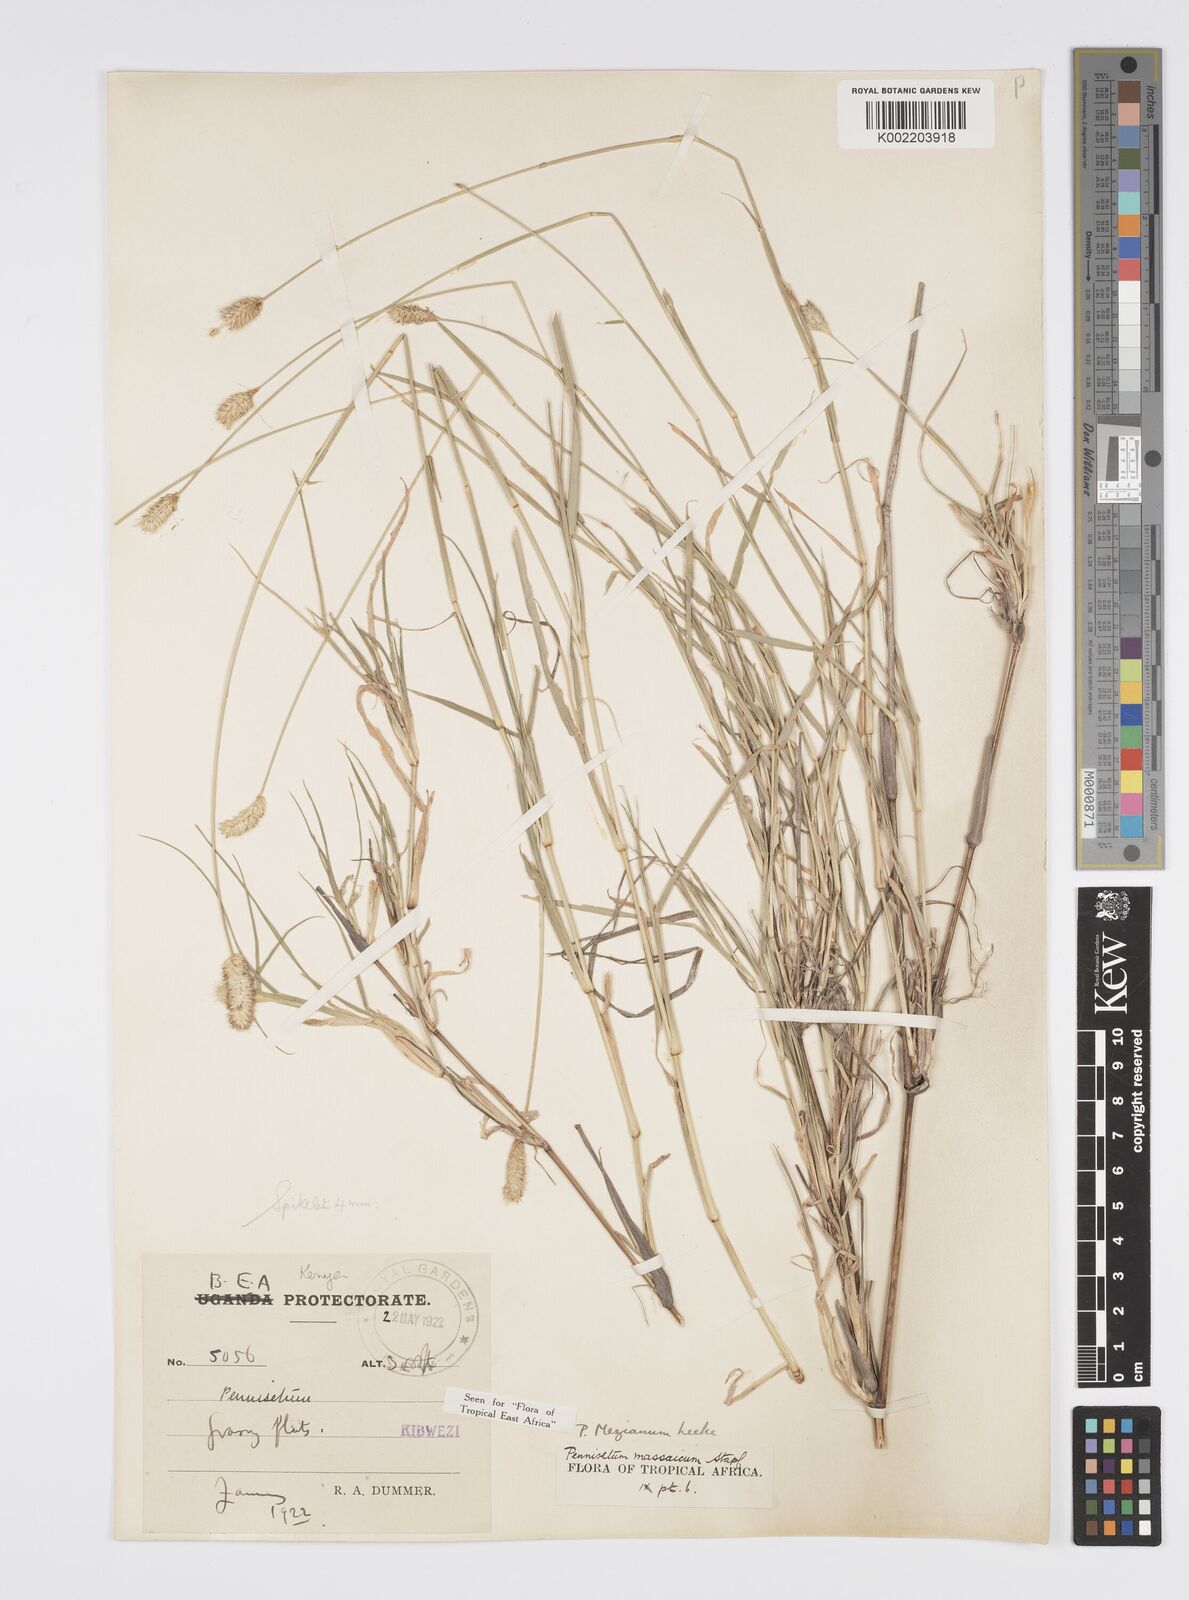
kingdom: Plantae
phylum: Tracheophyta
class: Liliopsida
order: Poales
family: Poaceae
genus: Cenchrus
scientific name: Cenchrus mezianus
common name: Bamboo grass
